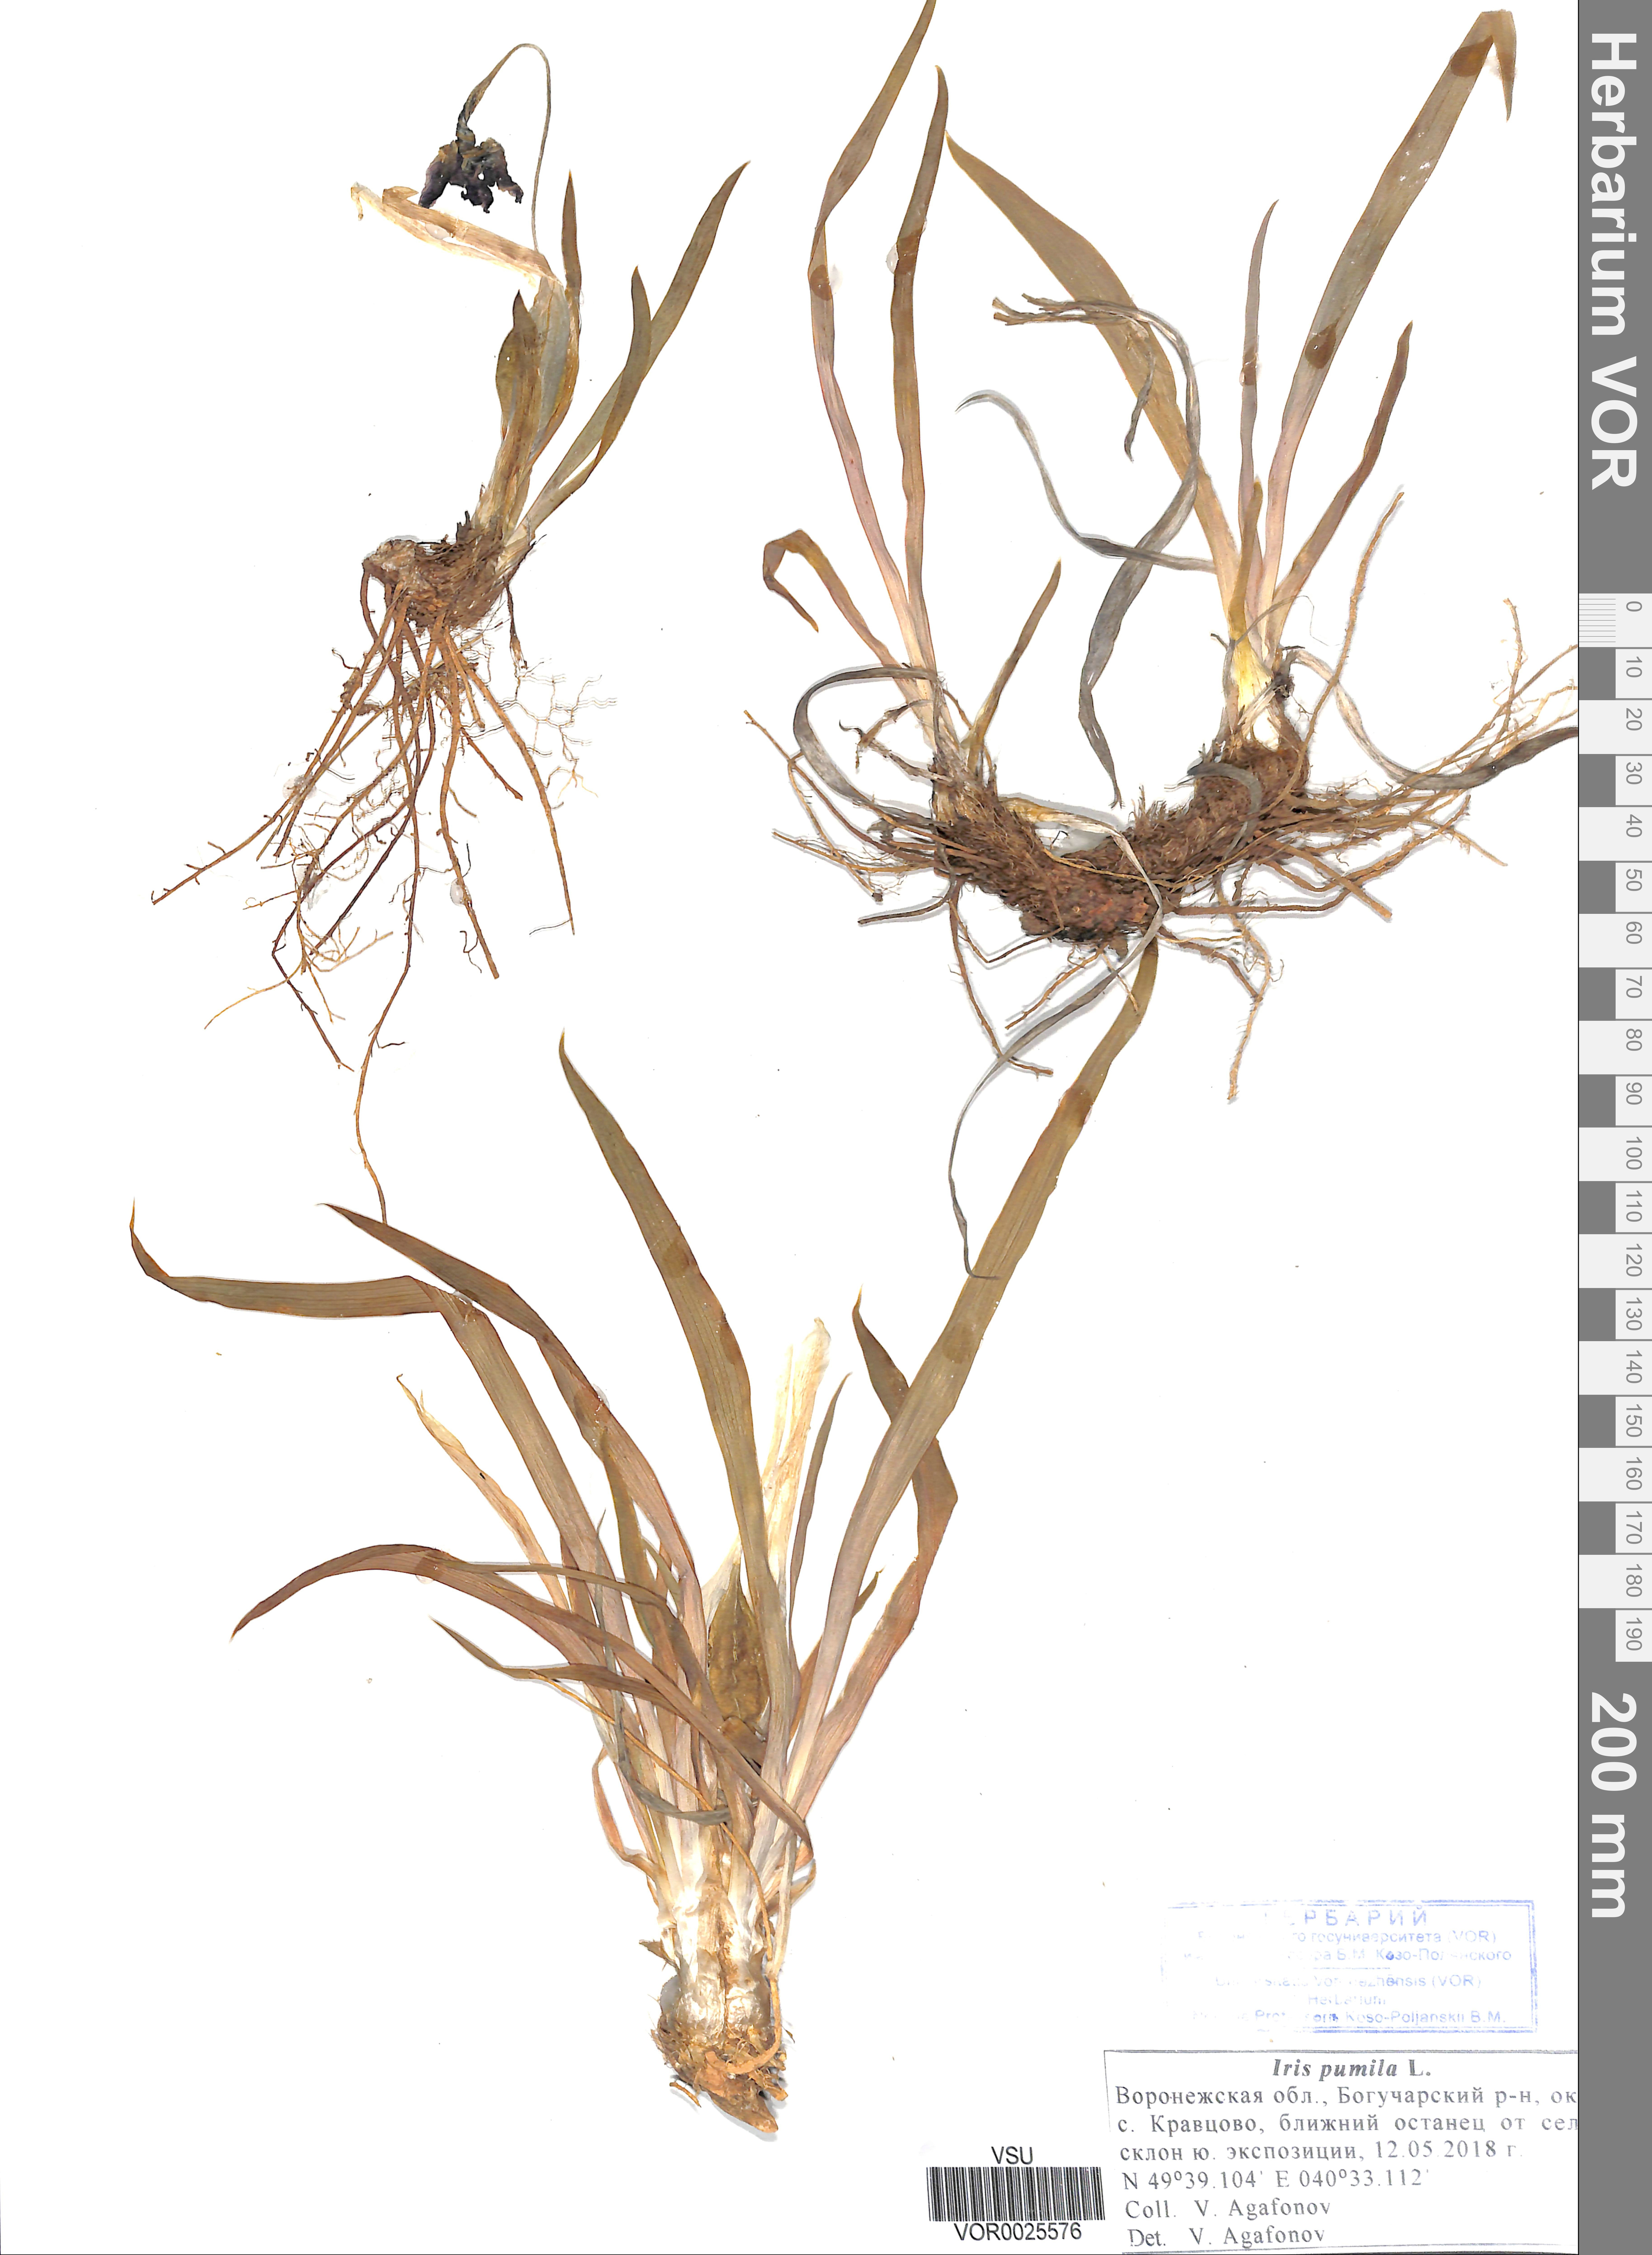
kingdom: Plantae
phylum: Tracheophyta
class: Liliopsida
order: Asparagales
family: Iridaceae
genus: Iris
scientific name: Iris pumila
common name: Dwarf iris
